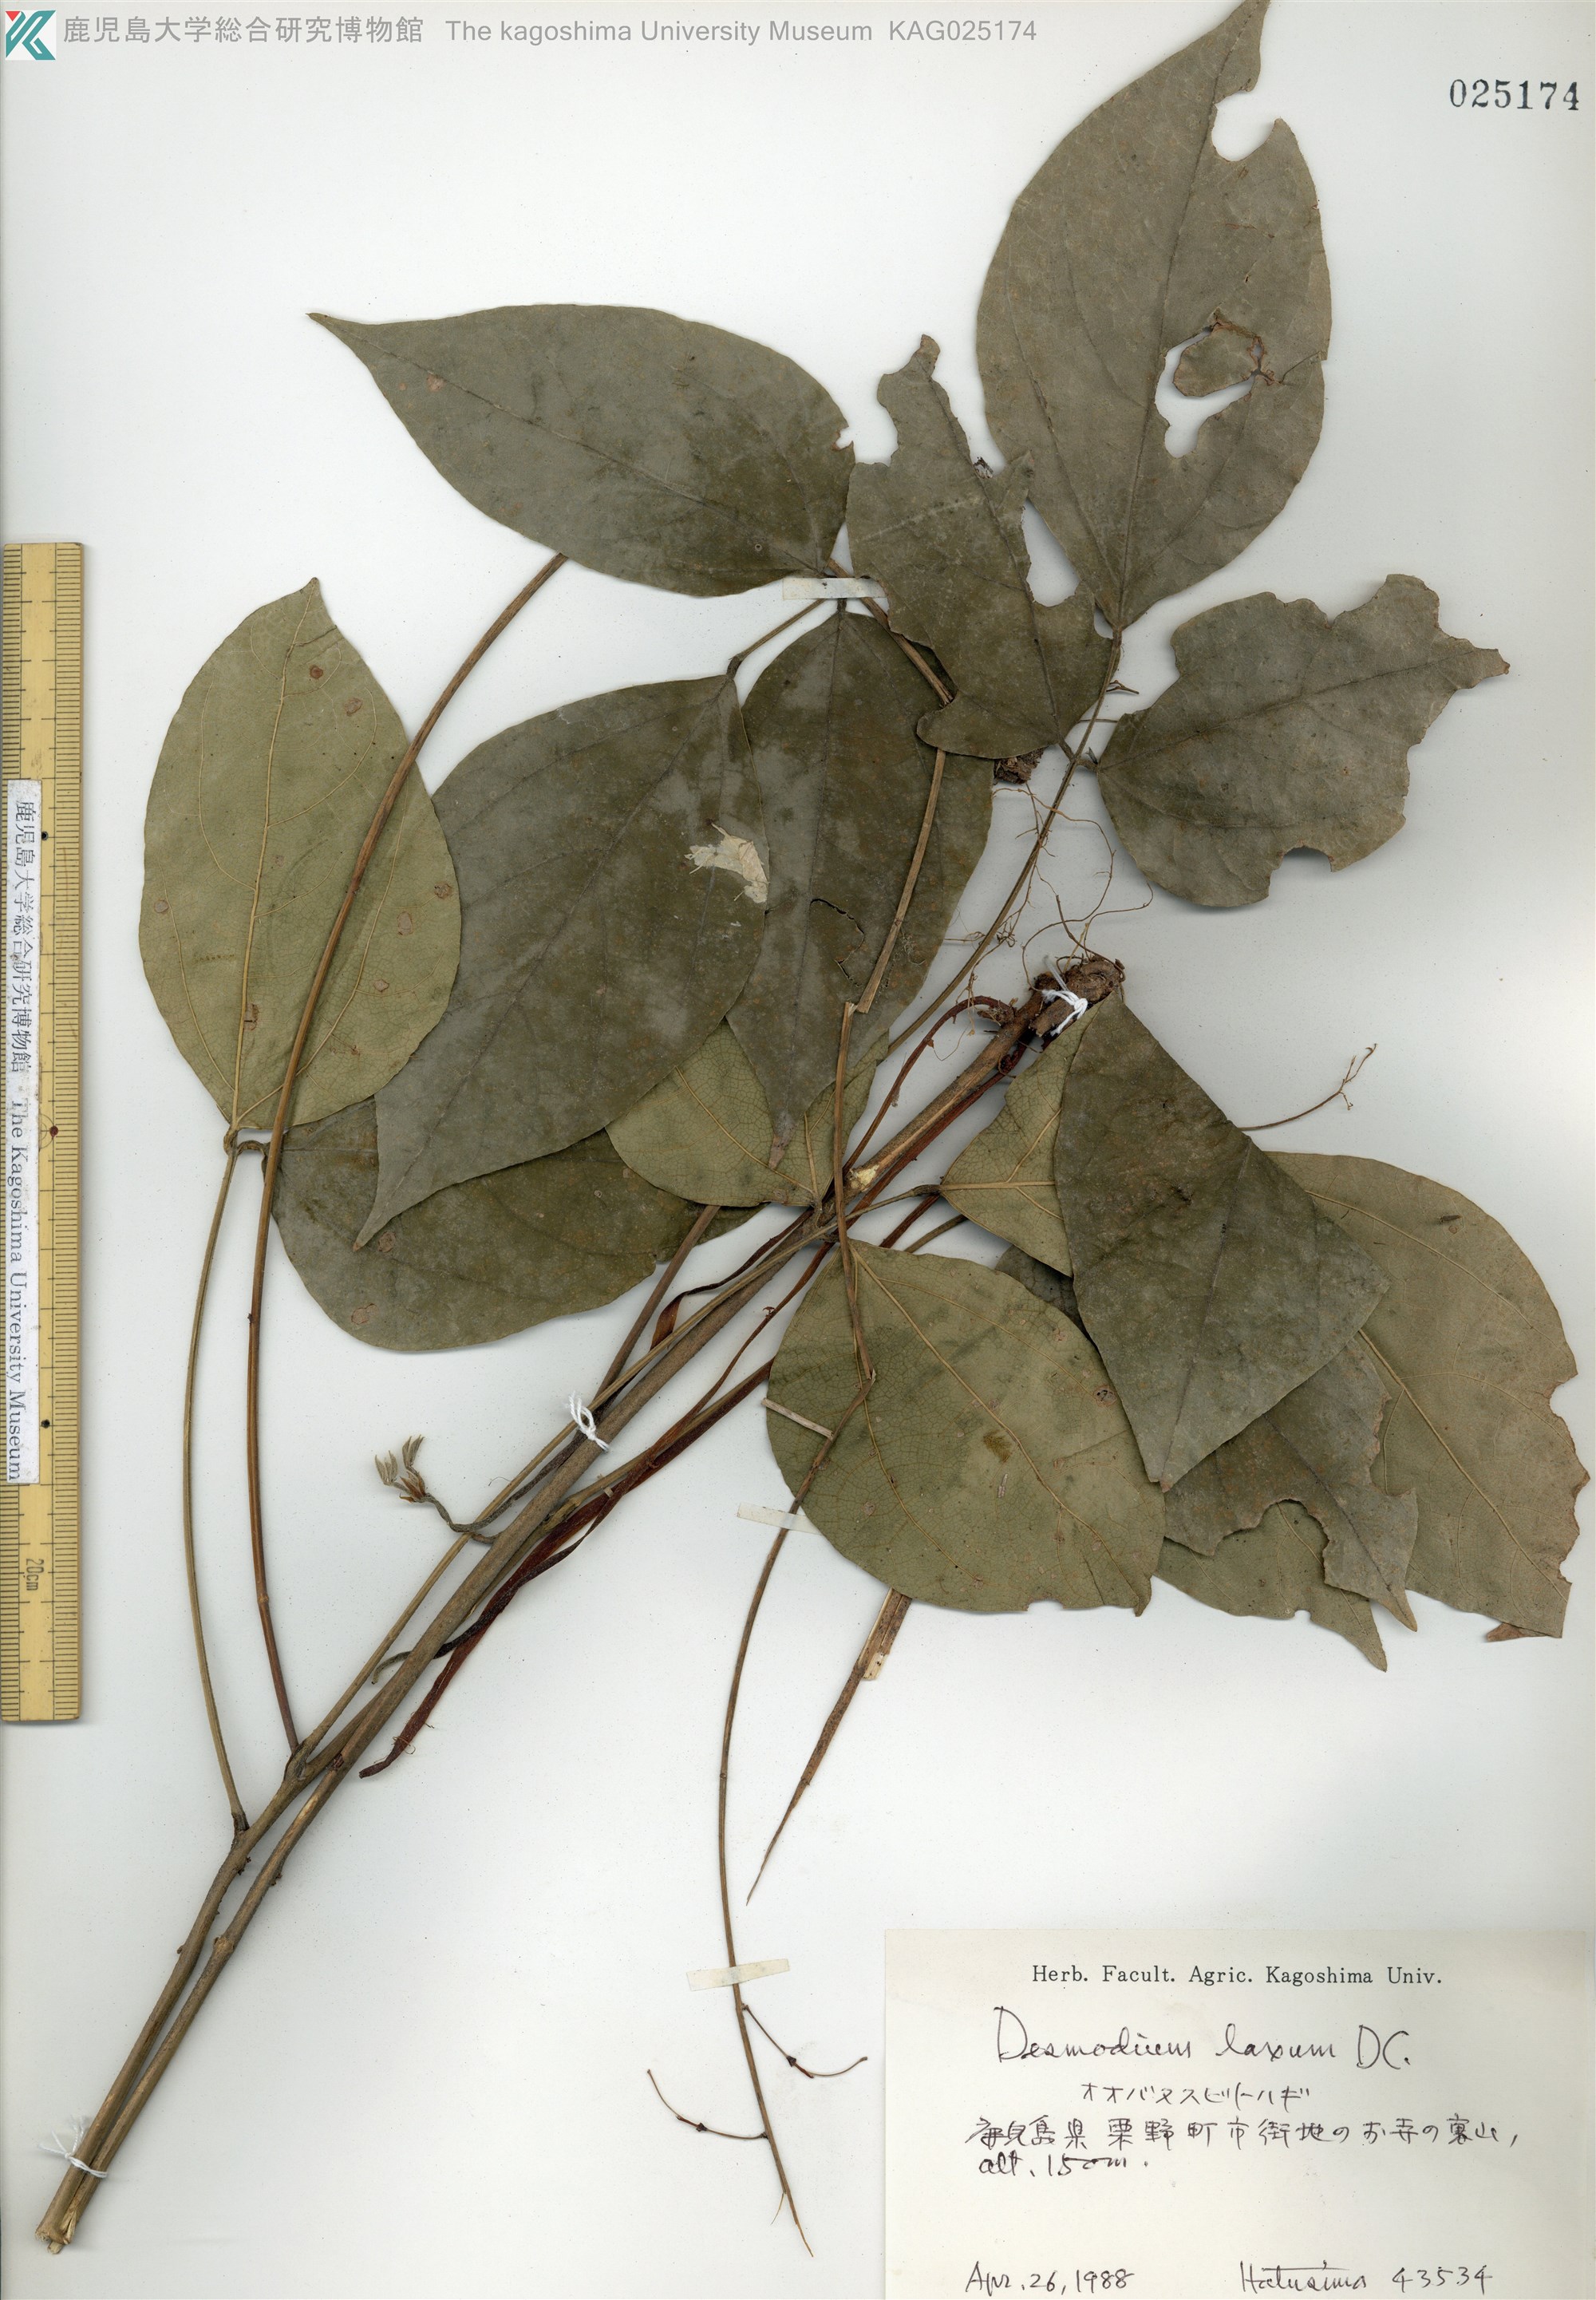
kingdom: Plantae
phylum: Tracheophyta
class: Magnoliopsida
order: Fabales
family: Fabaceae
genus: Desmodium
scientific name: Desmodium laxum
